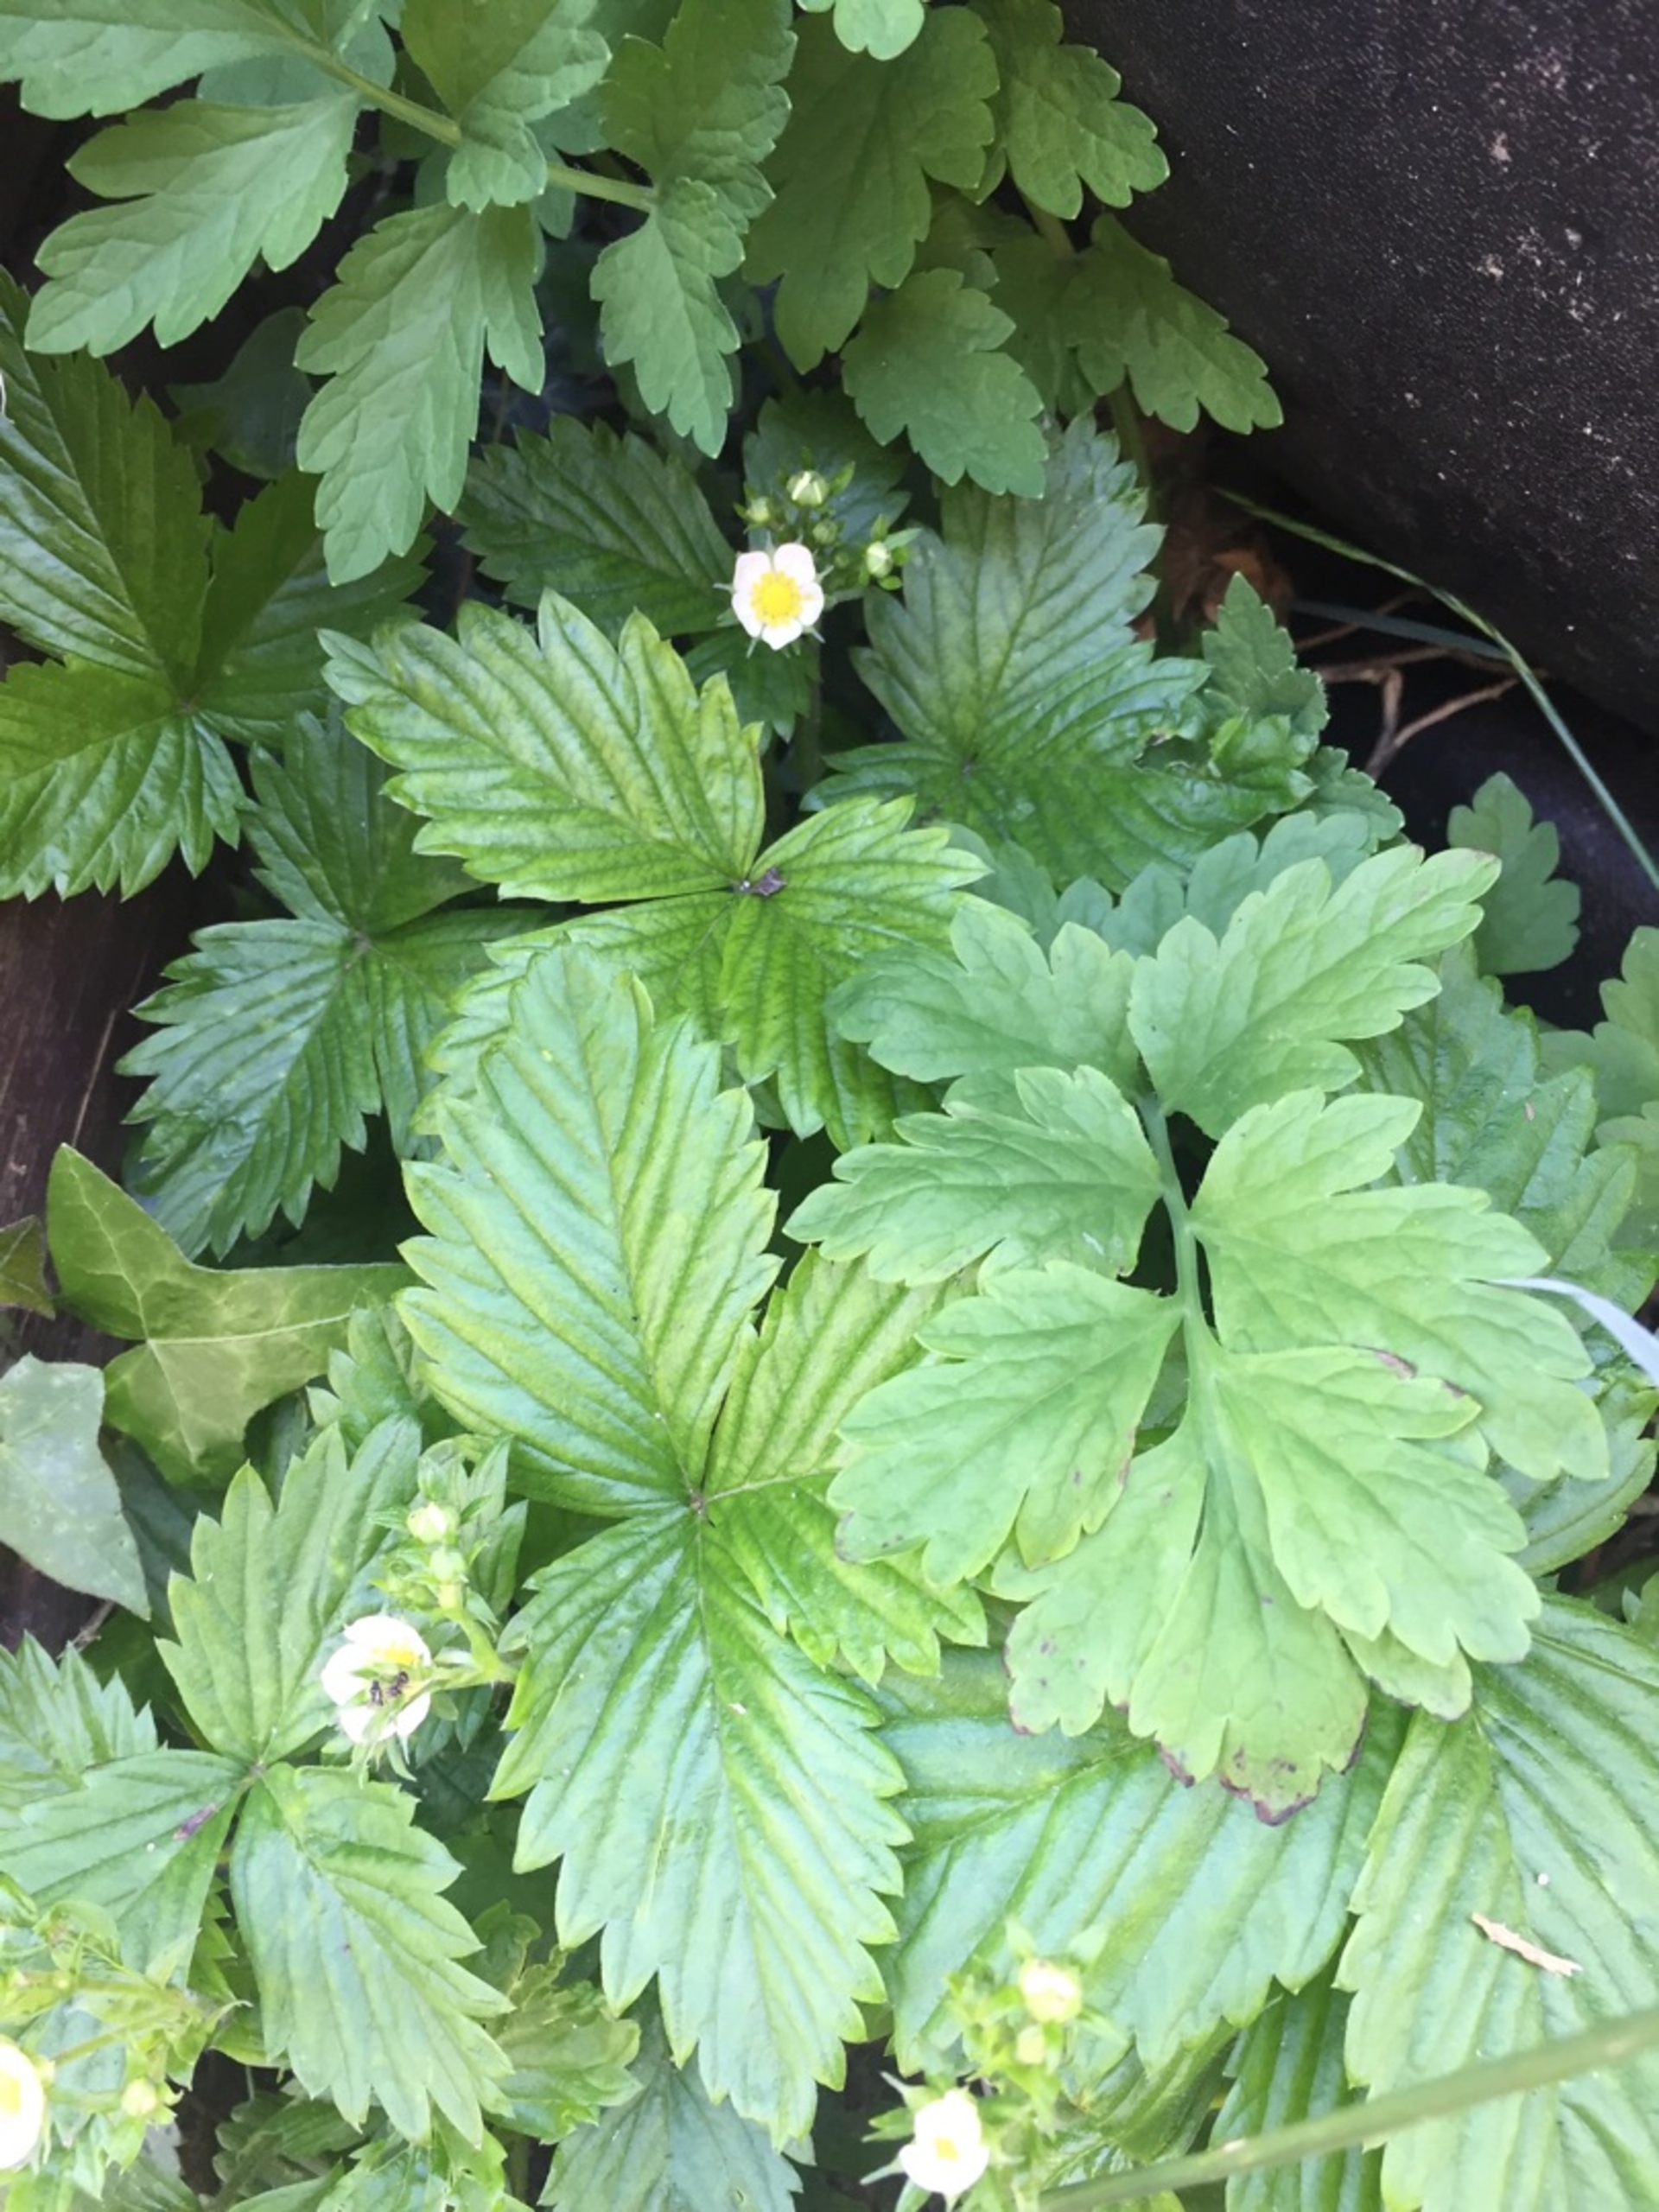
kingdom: Plantae
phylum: Tracheophyta
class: Magnoliopsida
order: Rosales
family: Rosaceae
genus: Fragaria
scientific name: Fragaria vesca
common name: Skov-jordbær
